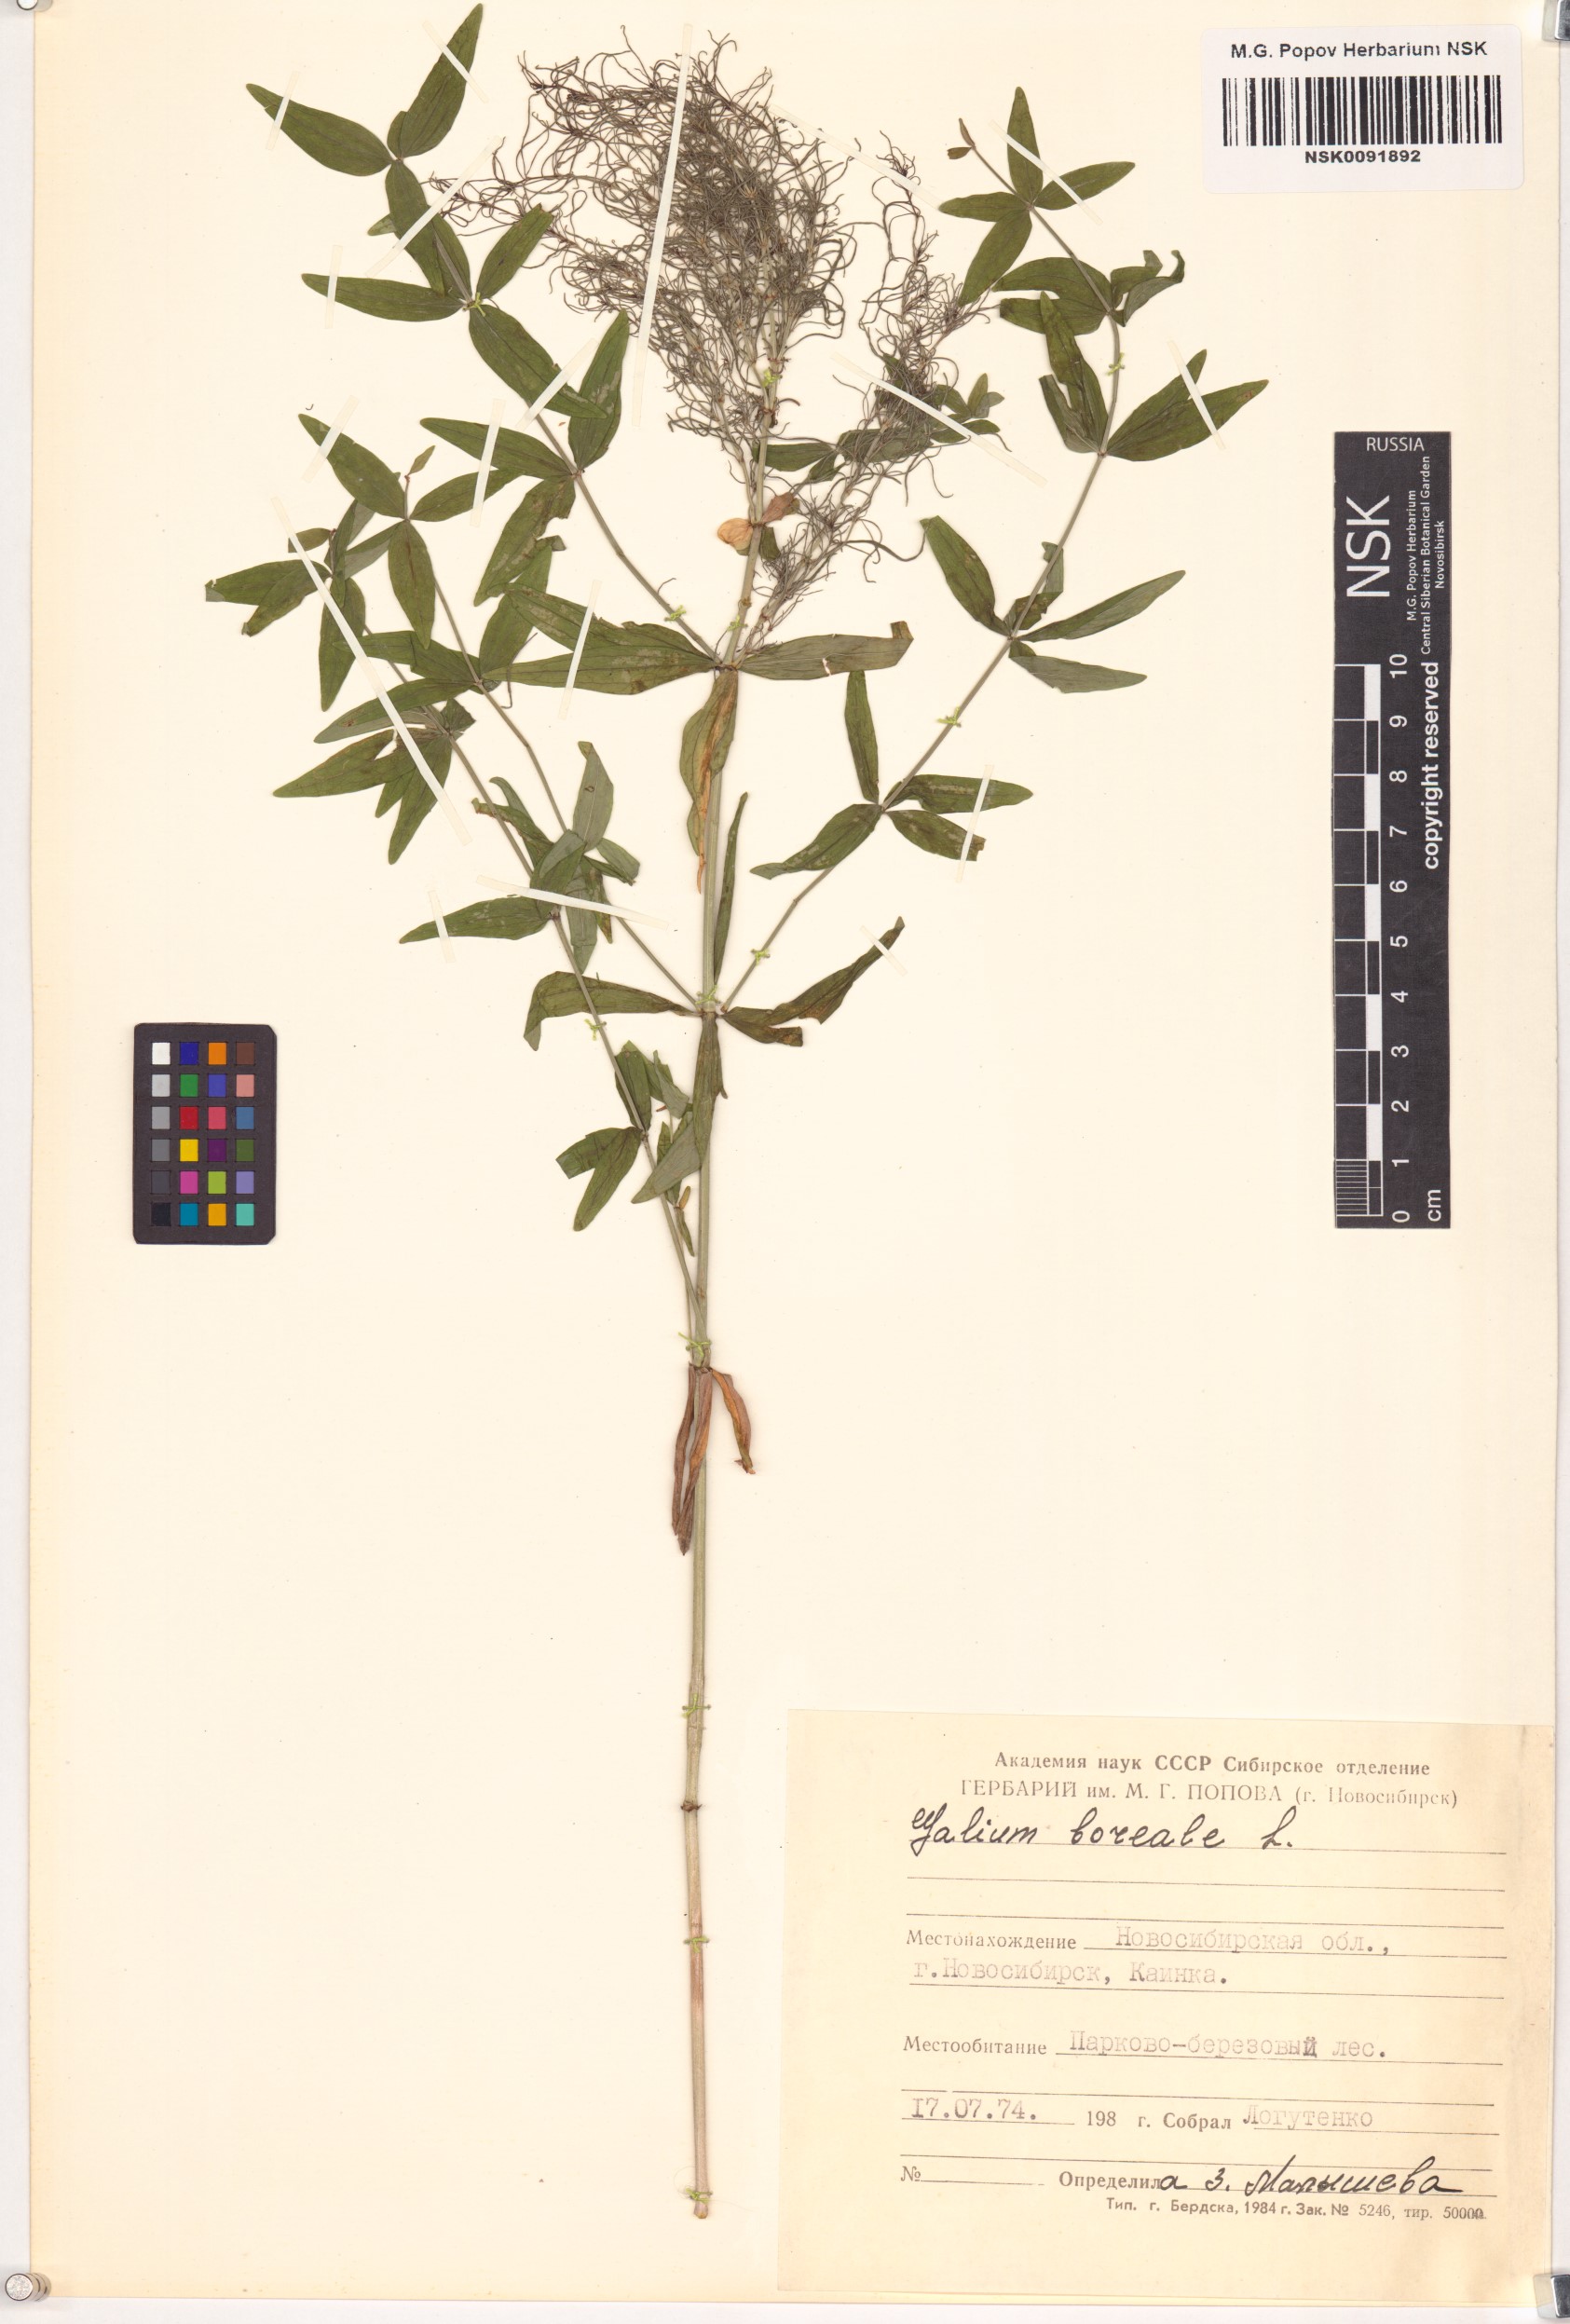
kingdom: Plantae
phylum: Tracheophyta
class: Magnoliopsida
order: Gentianales
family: Rubiaceae
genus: Galium
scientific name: Galium boreale
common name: Northern bedstraw
